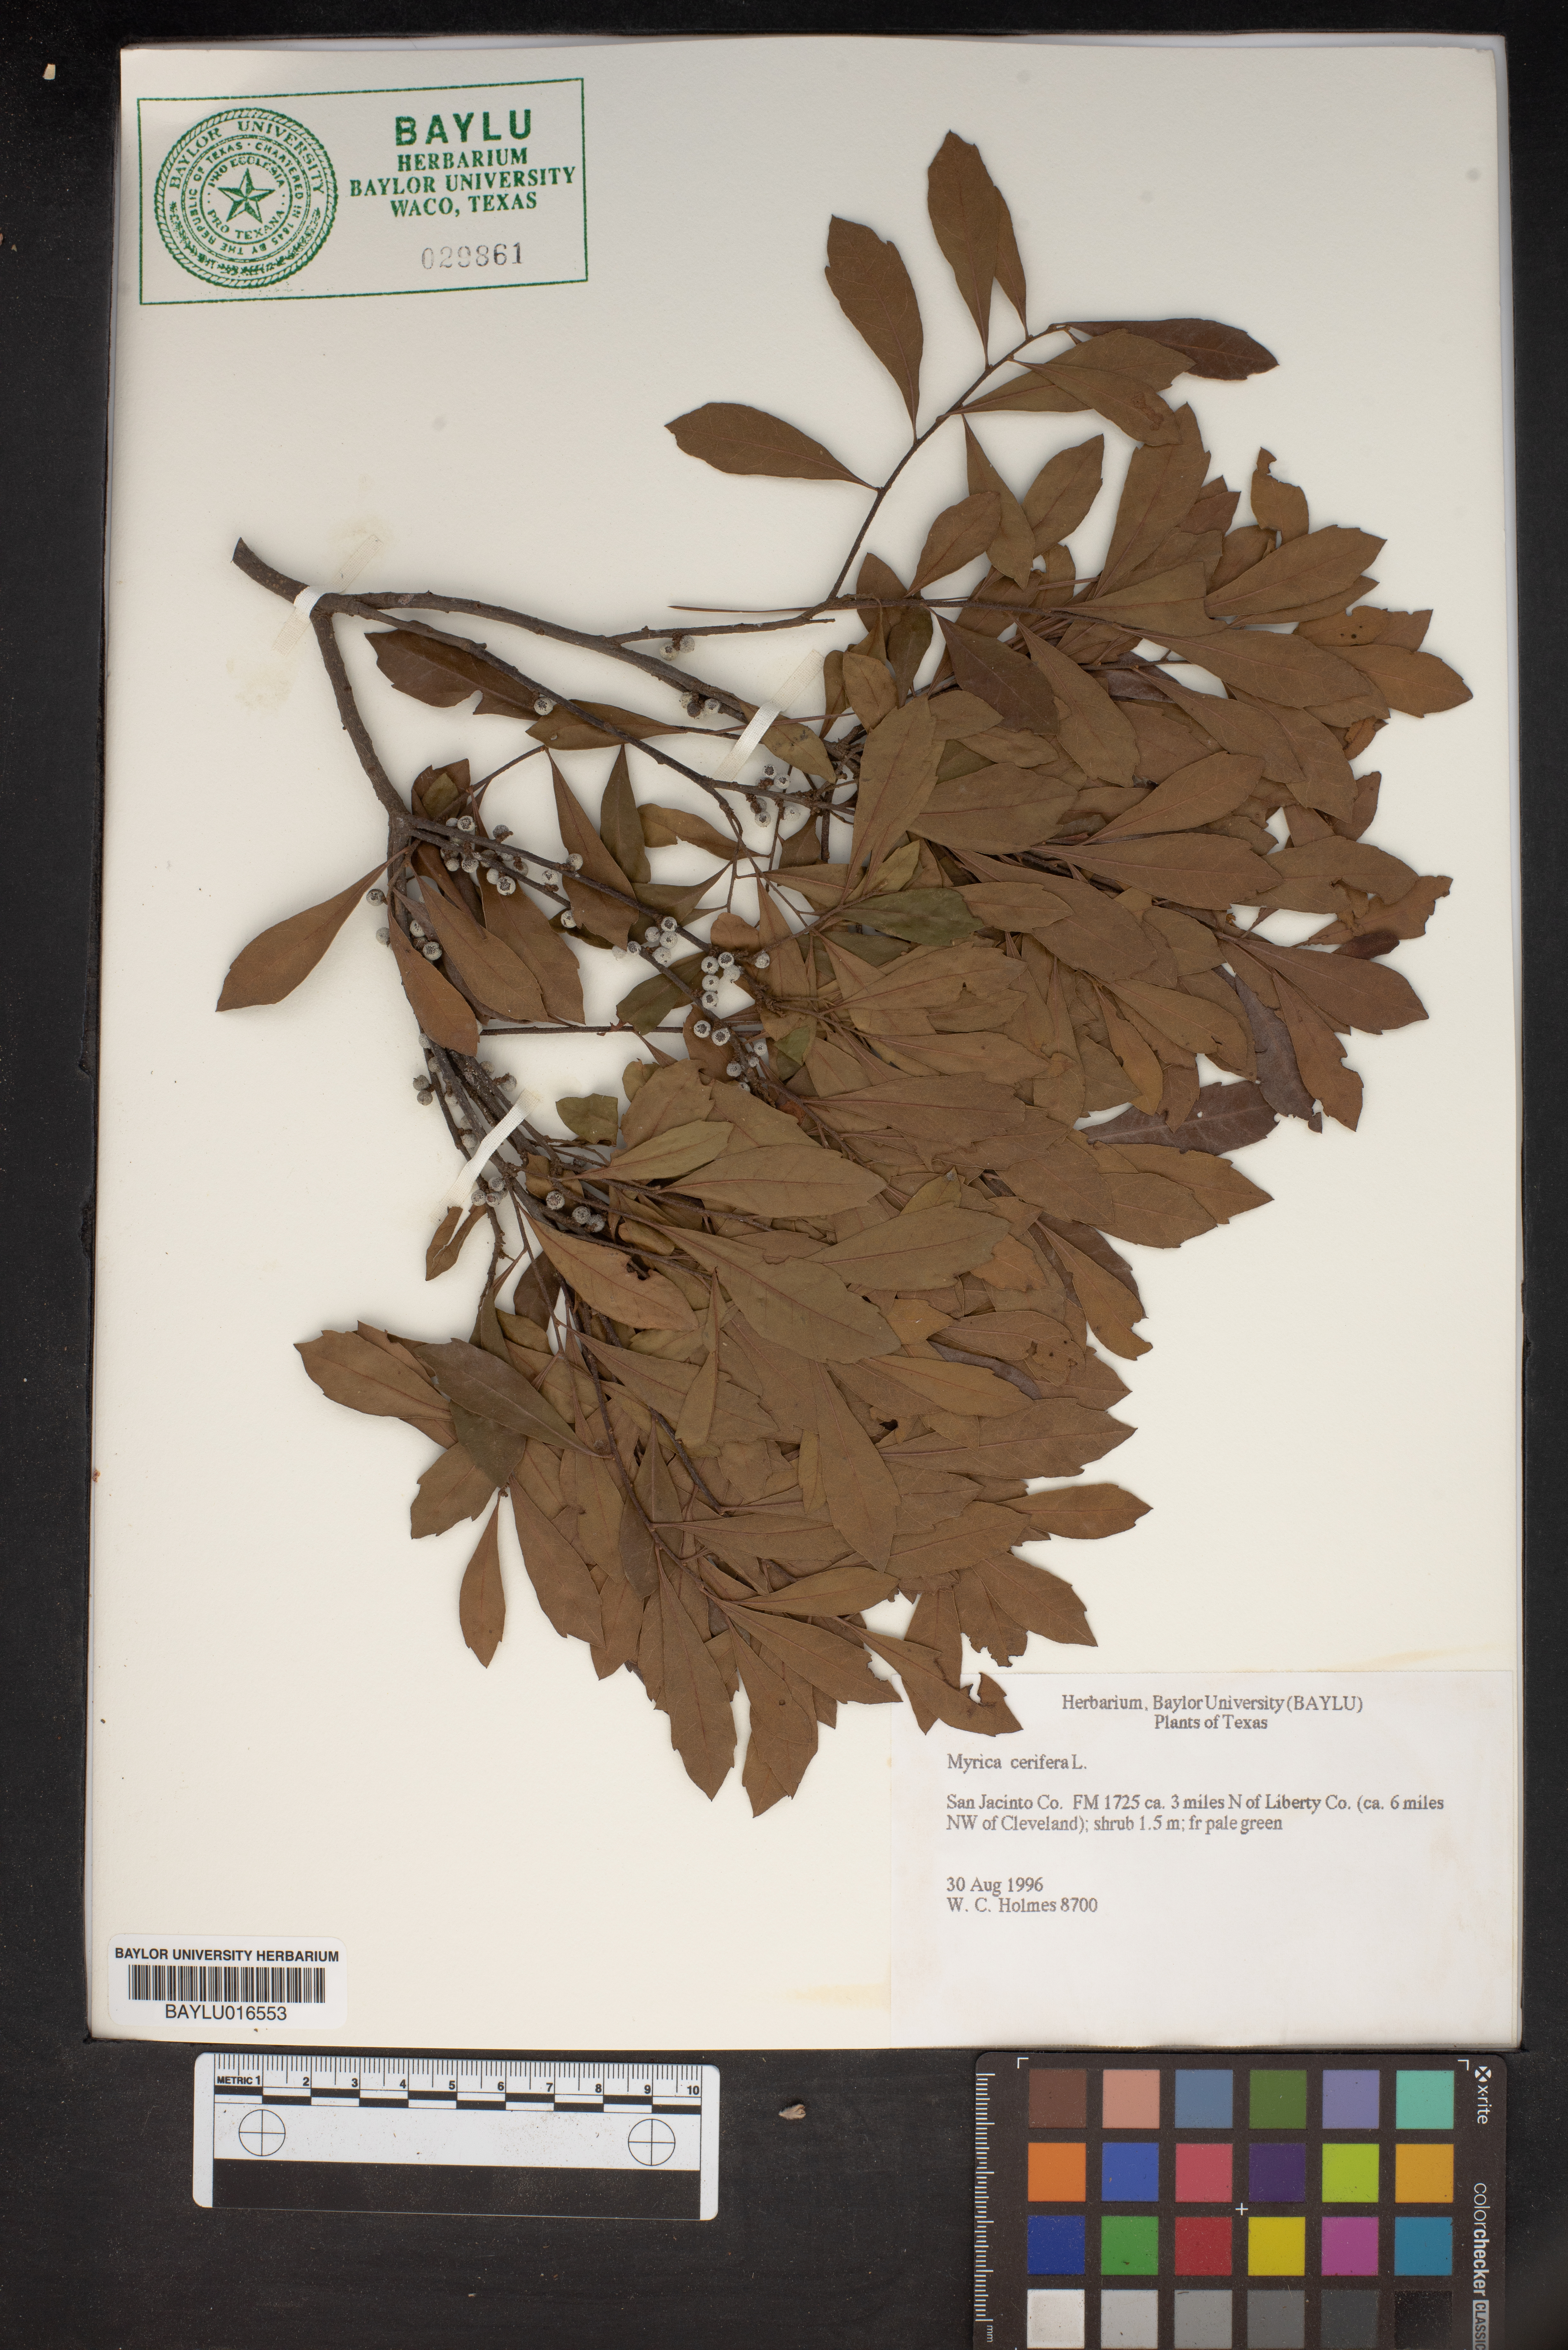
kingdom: Plantae
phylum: Tracheophyta
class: Magnoliopsida
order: Fagales
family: Myricaceae
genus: Morella
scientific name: Morella cerifera
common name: Wax myrtle
